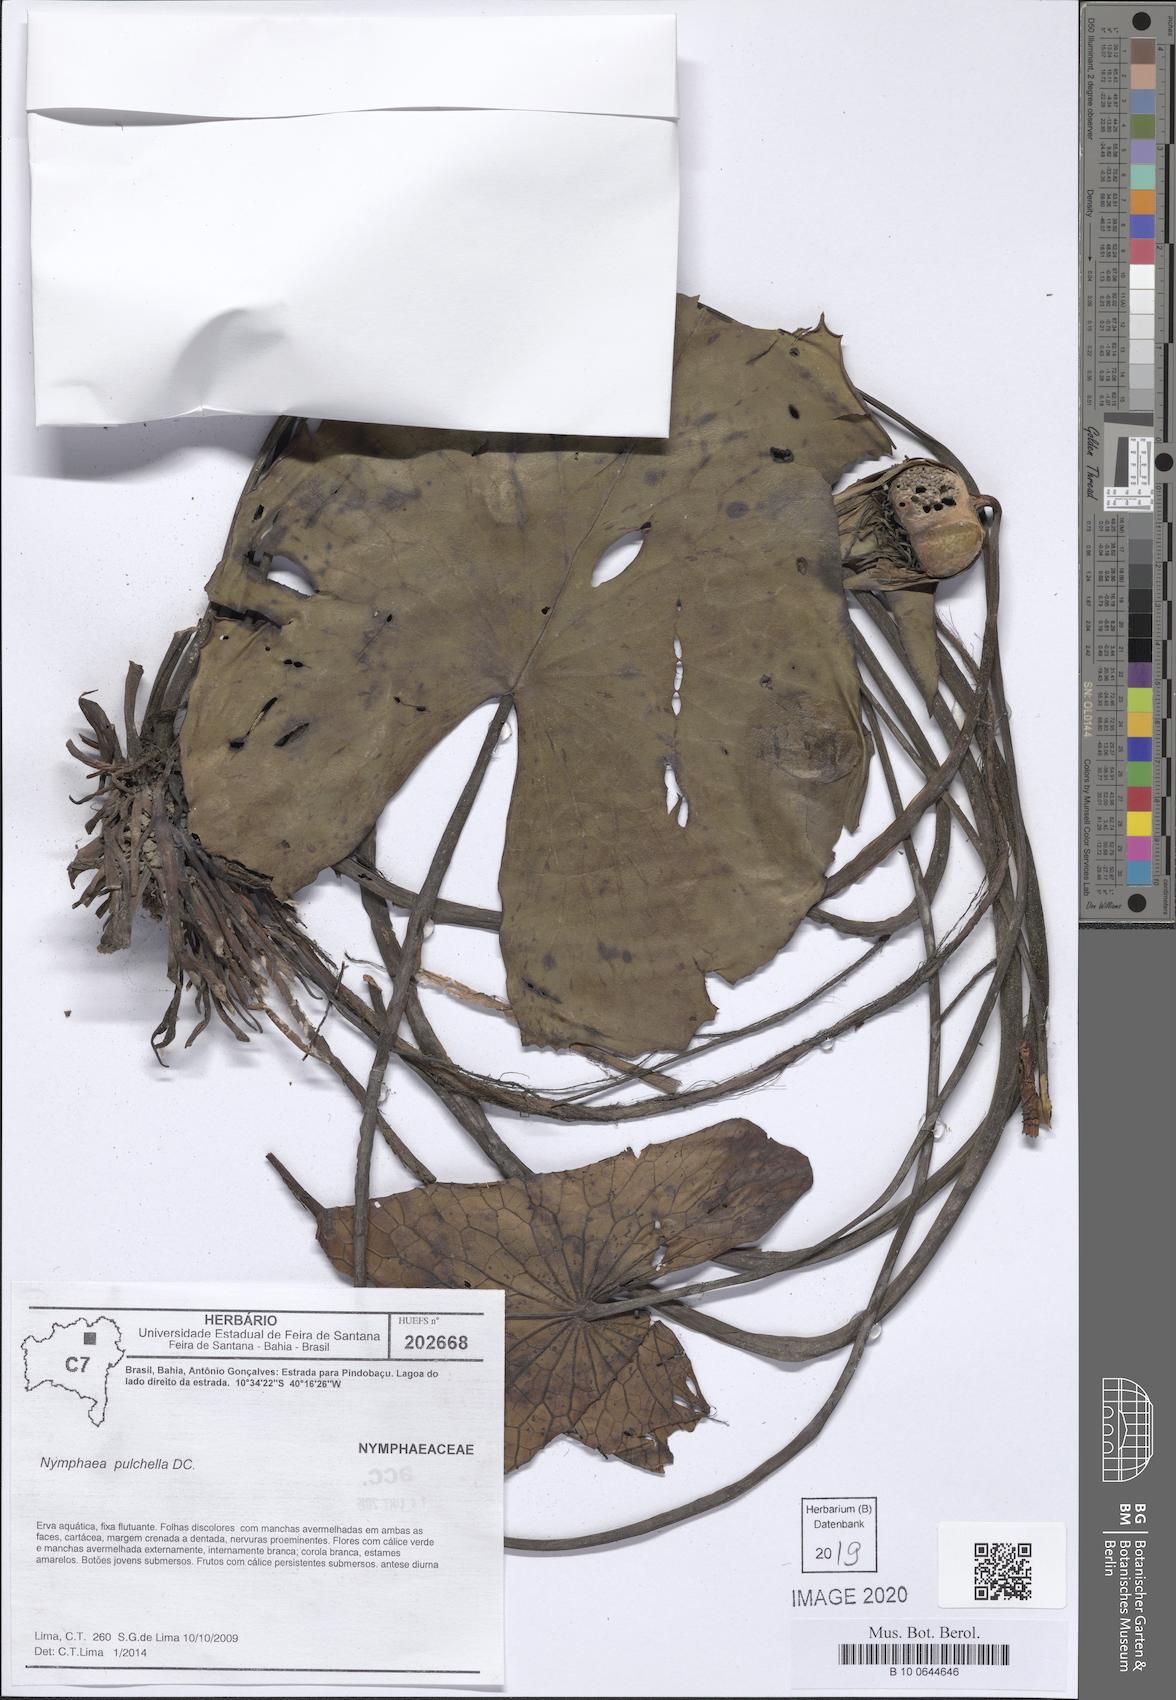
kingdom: Plantae
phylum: Tracheophyta
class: Magnoliopsida
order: Nymphaeales
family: Nymphaeaceae
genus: Nymphaea
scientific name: Nymphaea pulchella
